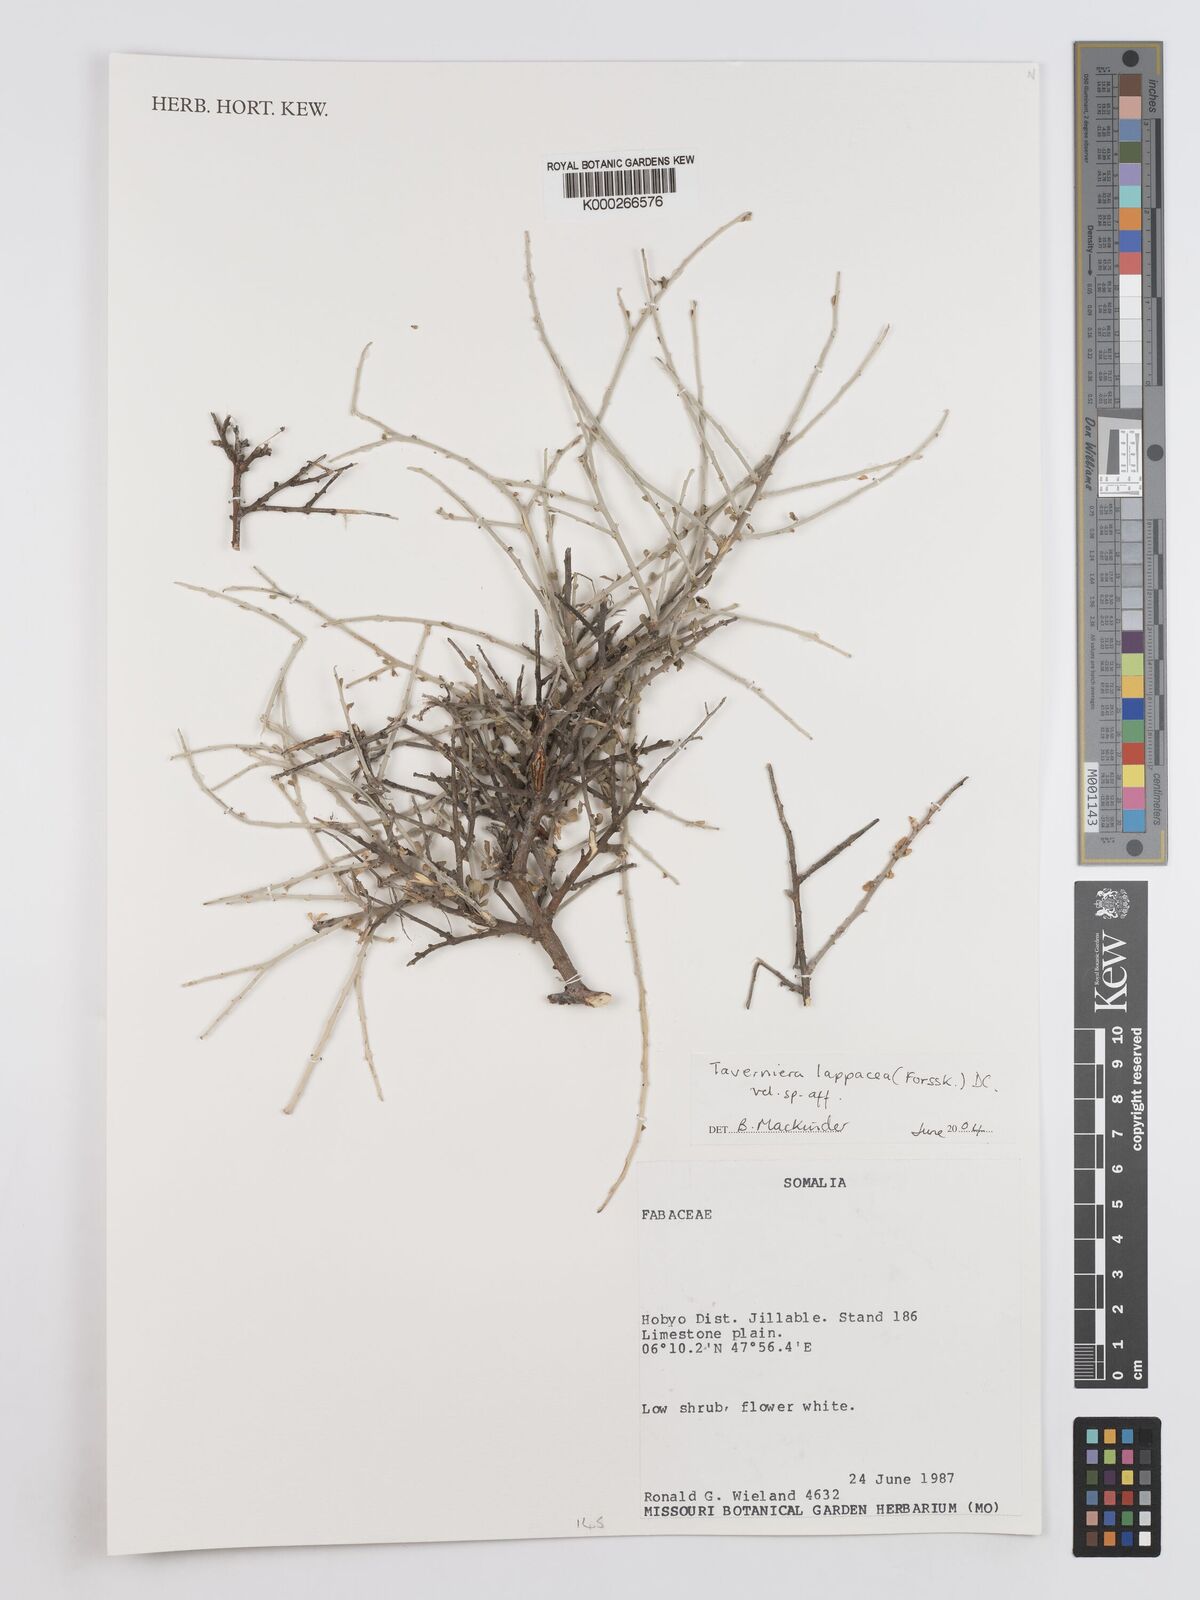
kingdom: Plantae
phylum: Tracheophyta
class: Magnoliopsida
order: Fabales
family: Fabaceae
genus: Taverniera
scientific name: Taverniera lappacea
